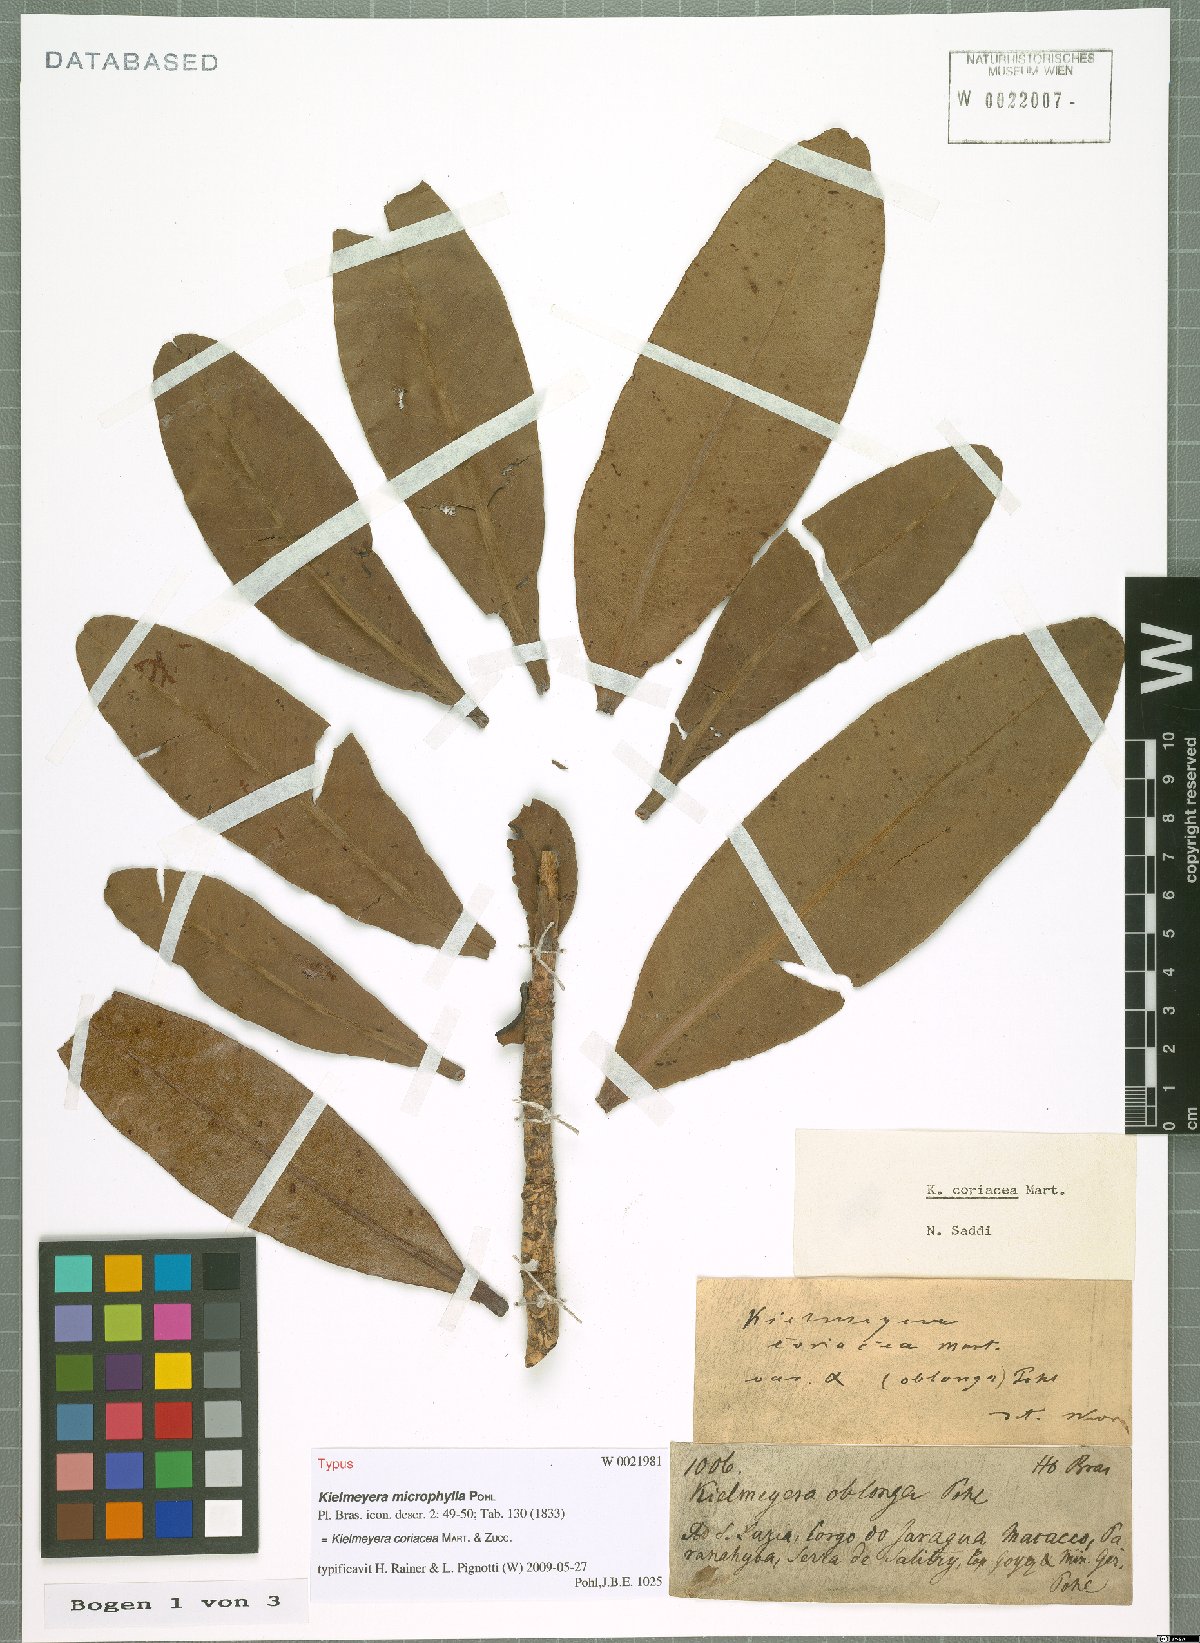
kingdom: Plantae
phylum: Tracheophyta
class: Magnoliopsida
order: Malpighiales
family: Calophyllaceae
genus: Kielmeyera
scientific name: Kielmeyera coriacea
